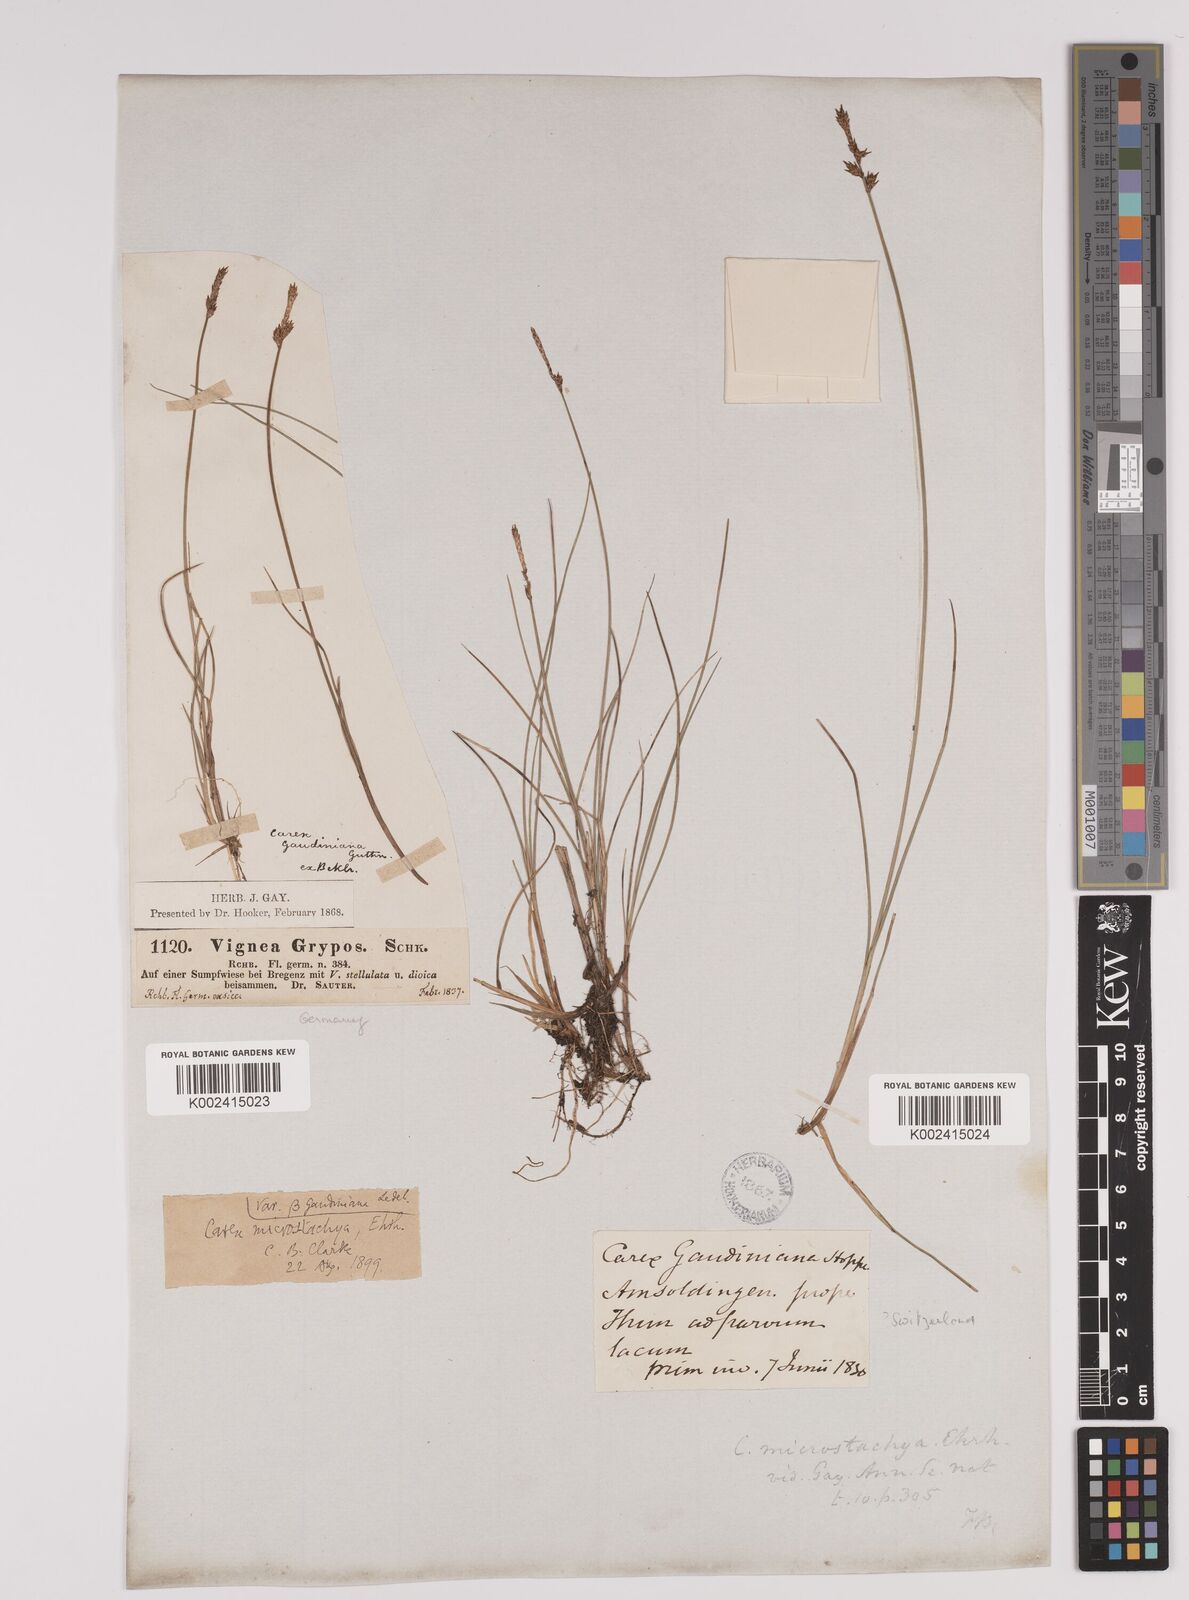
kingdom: Plantae
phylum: Tracheophyta
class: Liliopsida
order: Poales
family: Cyperaceae
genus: Carex
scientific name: Carex dioica
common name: Dioecious sedge
